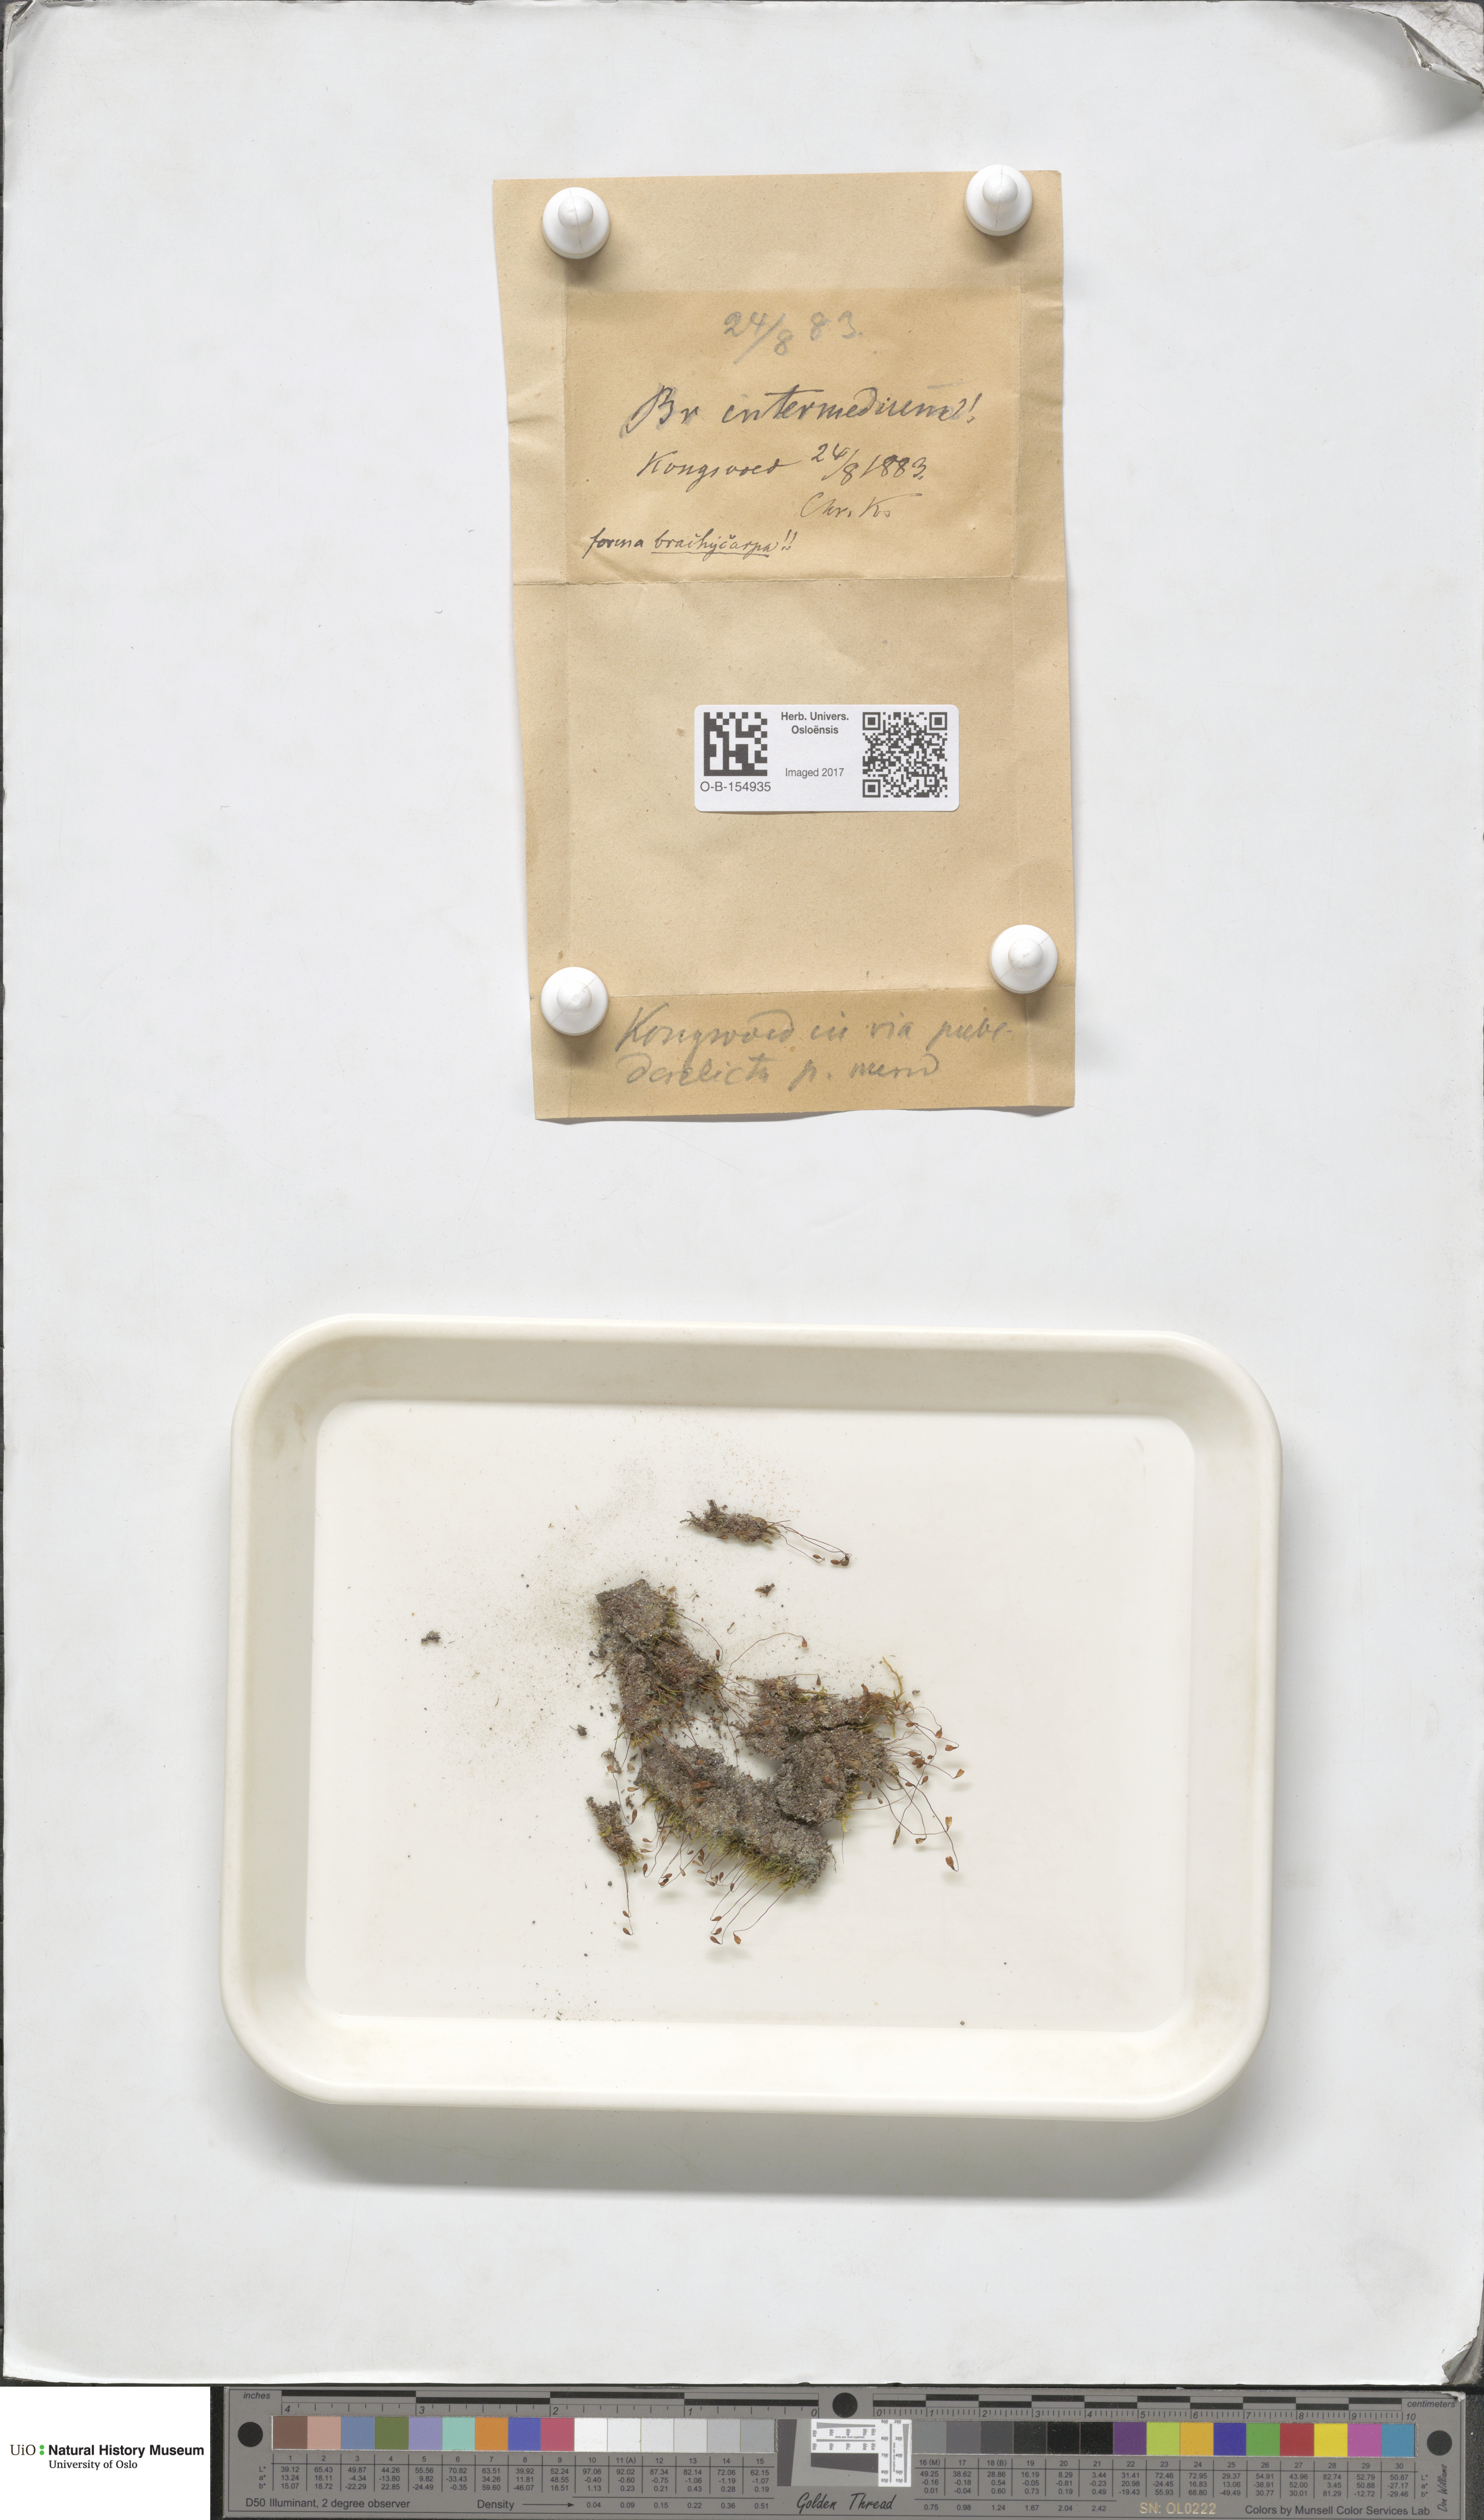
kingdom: Plantae
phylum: Bryophyta
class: Bryopsida
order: Bryales
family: Bryaceae
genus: Ptychostomum
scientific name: Ptychostomum intermedium
